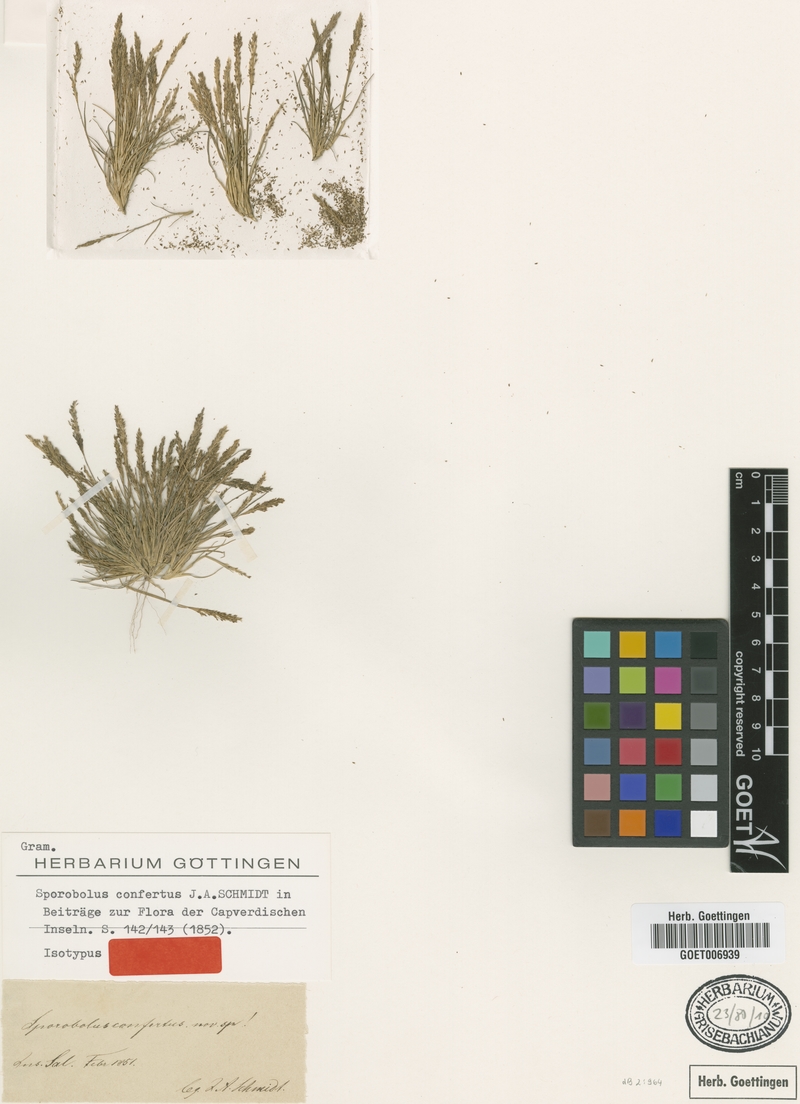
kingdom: Plantae
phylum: Tracheophyta
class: Liliopsida
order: Poales
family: Poaceae
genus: Sporobolus
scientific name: Sporobolus virginicus
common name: Beach dropseed
